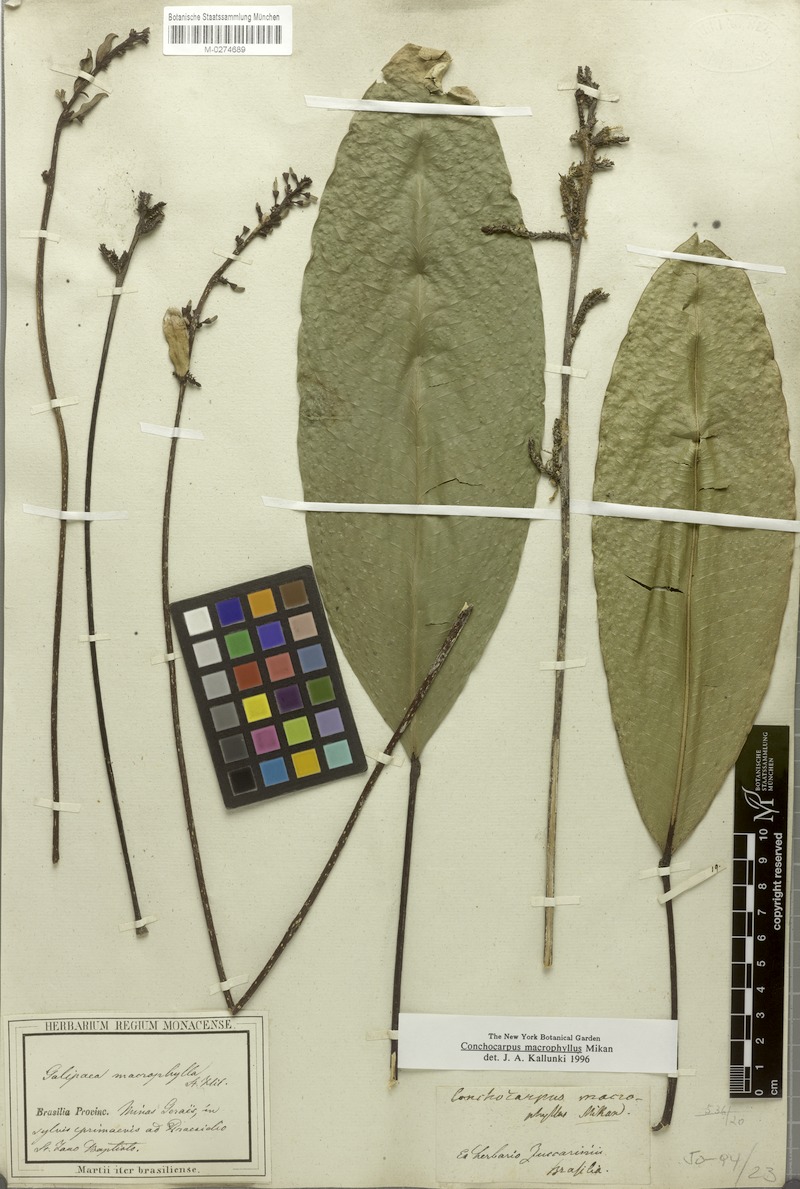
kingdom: Plantae
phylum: Tracheophyta
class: Magnoliopsida
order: Sapindales
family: Rutaceae
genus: Conchocarpus
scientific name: Conchocarpus macrophyllus
